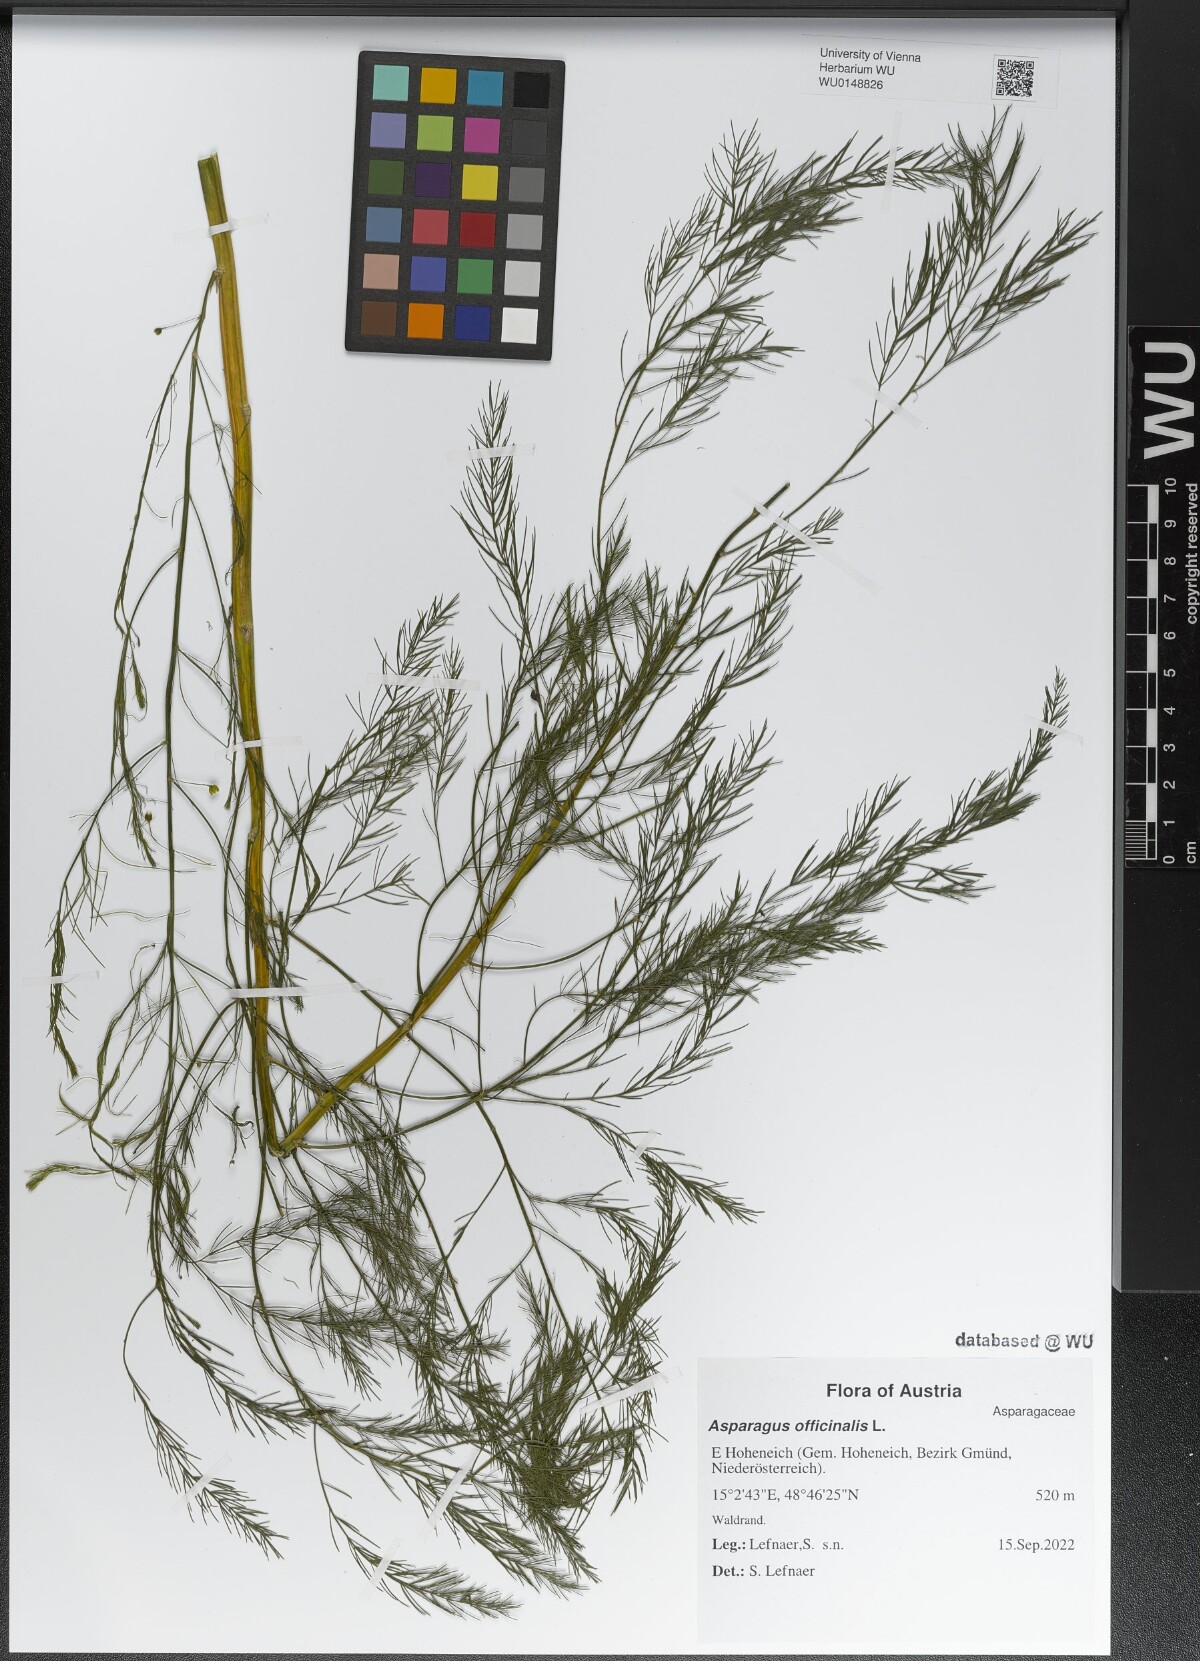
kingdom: Plantae
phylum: Tracheophyta
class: Liliopsida
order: Asparagales
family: Asparagaceae
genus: Asparagus
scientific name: Asparagus officinalis
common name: Garden asparagus
